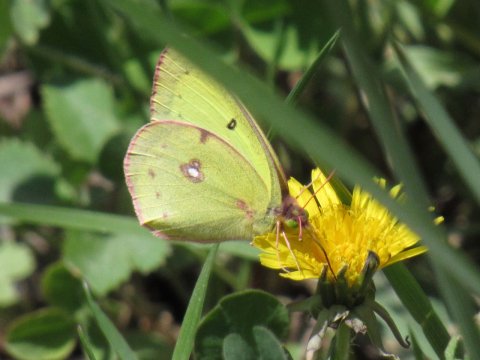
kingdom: Animalia
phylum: Arthropoda
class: Insecta
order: Lepidoptera
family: Pieridae
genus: Colias
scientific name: Colias philodice
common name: Clouded Sulphur
